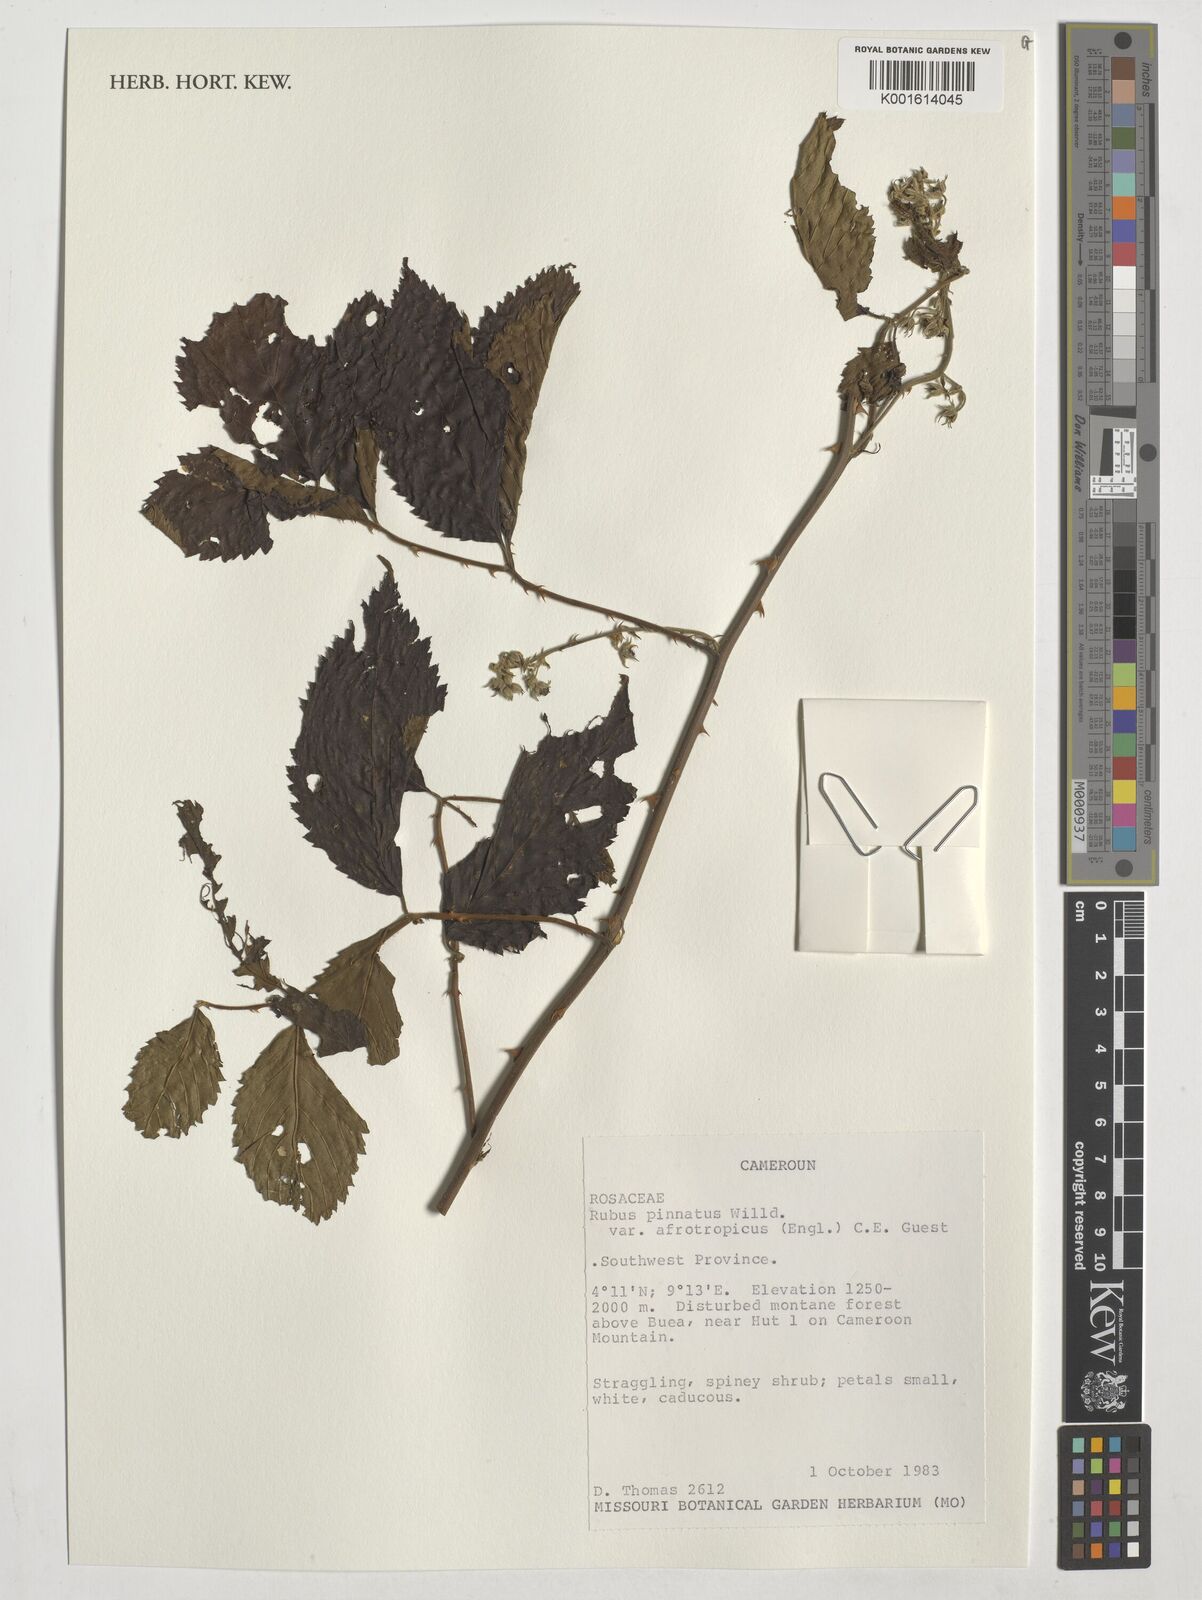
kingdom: Plantae
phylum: Tracheophyta
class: Magnoliopsida
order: Rosales
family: Rosaceae
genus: Rubus
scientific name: Rubus pinnatus
